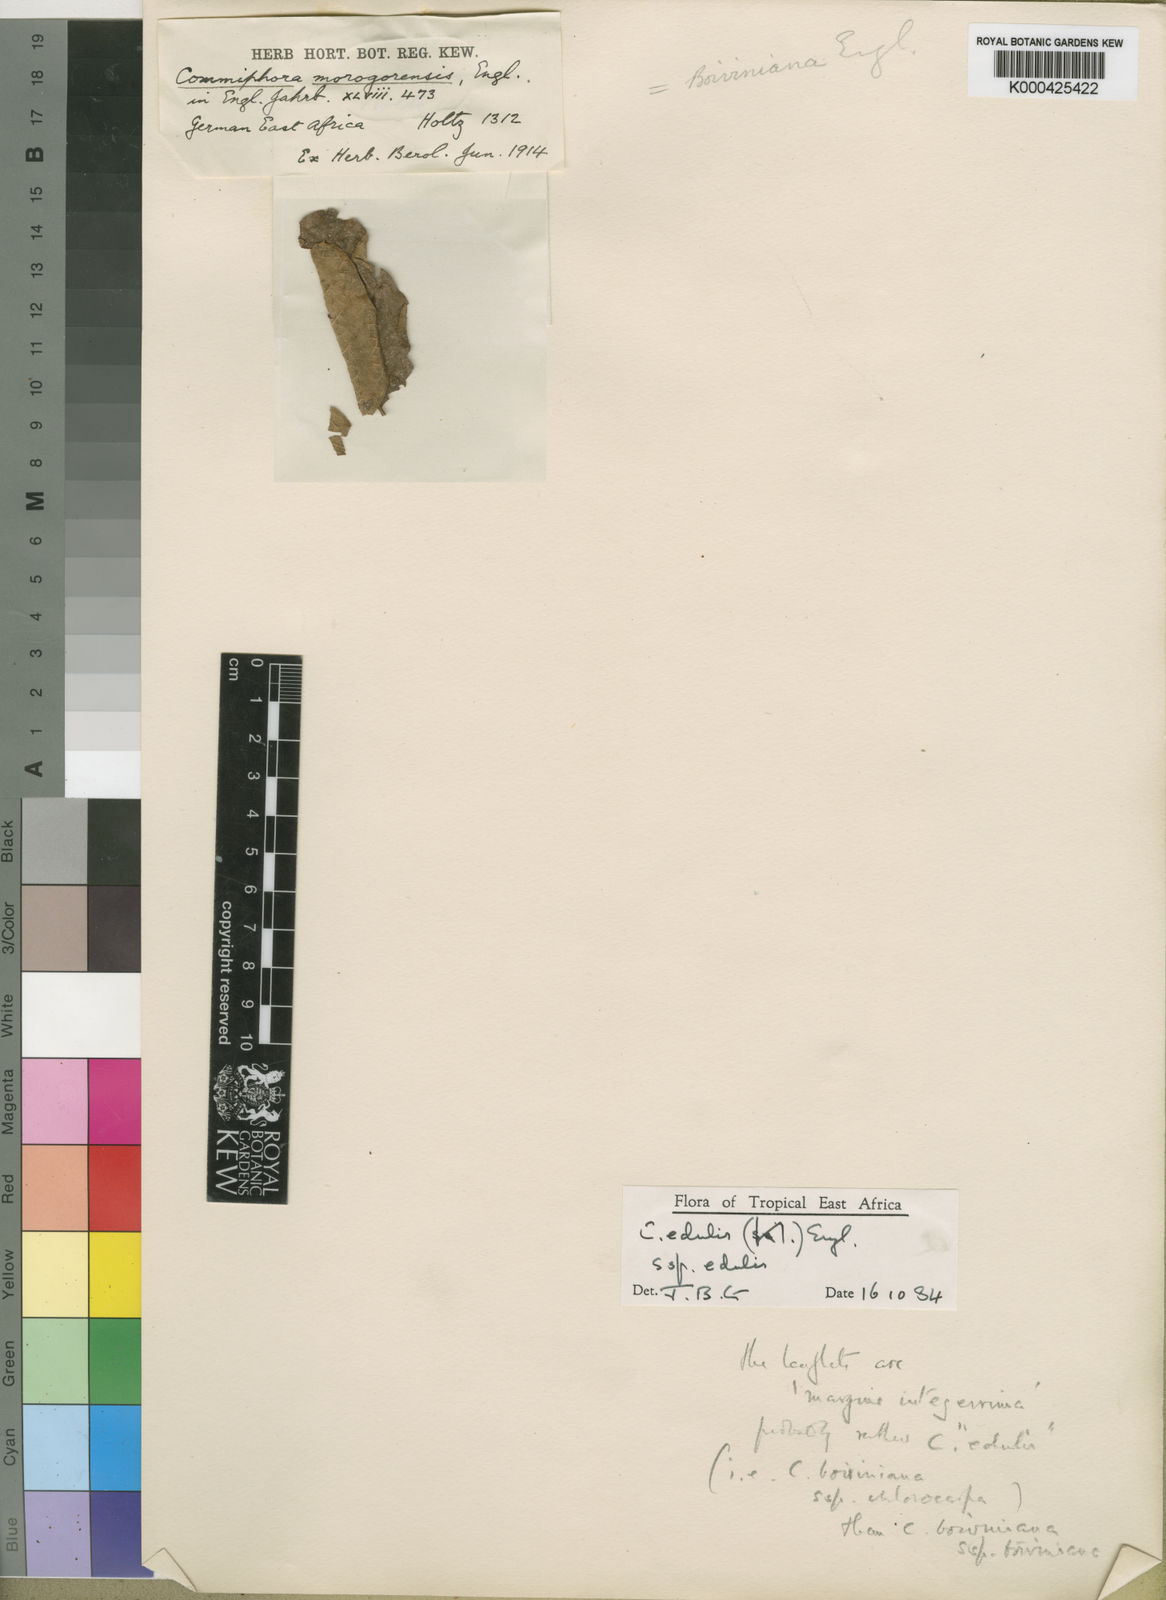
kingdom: Plantae
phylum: Tracheophyta
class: Magnoliopsida
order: Sapindales
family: Burseraceae
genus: Commiphora
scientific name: Commiphora edulis
